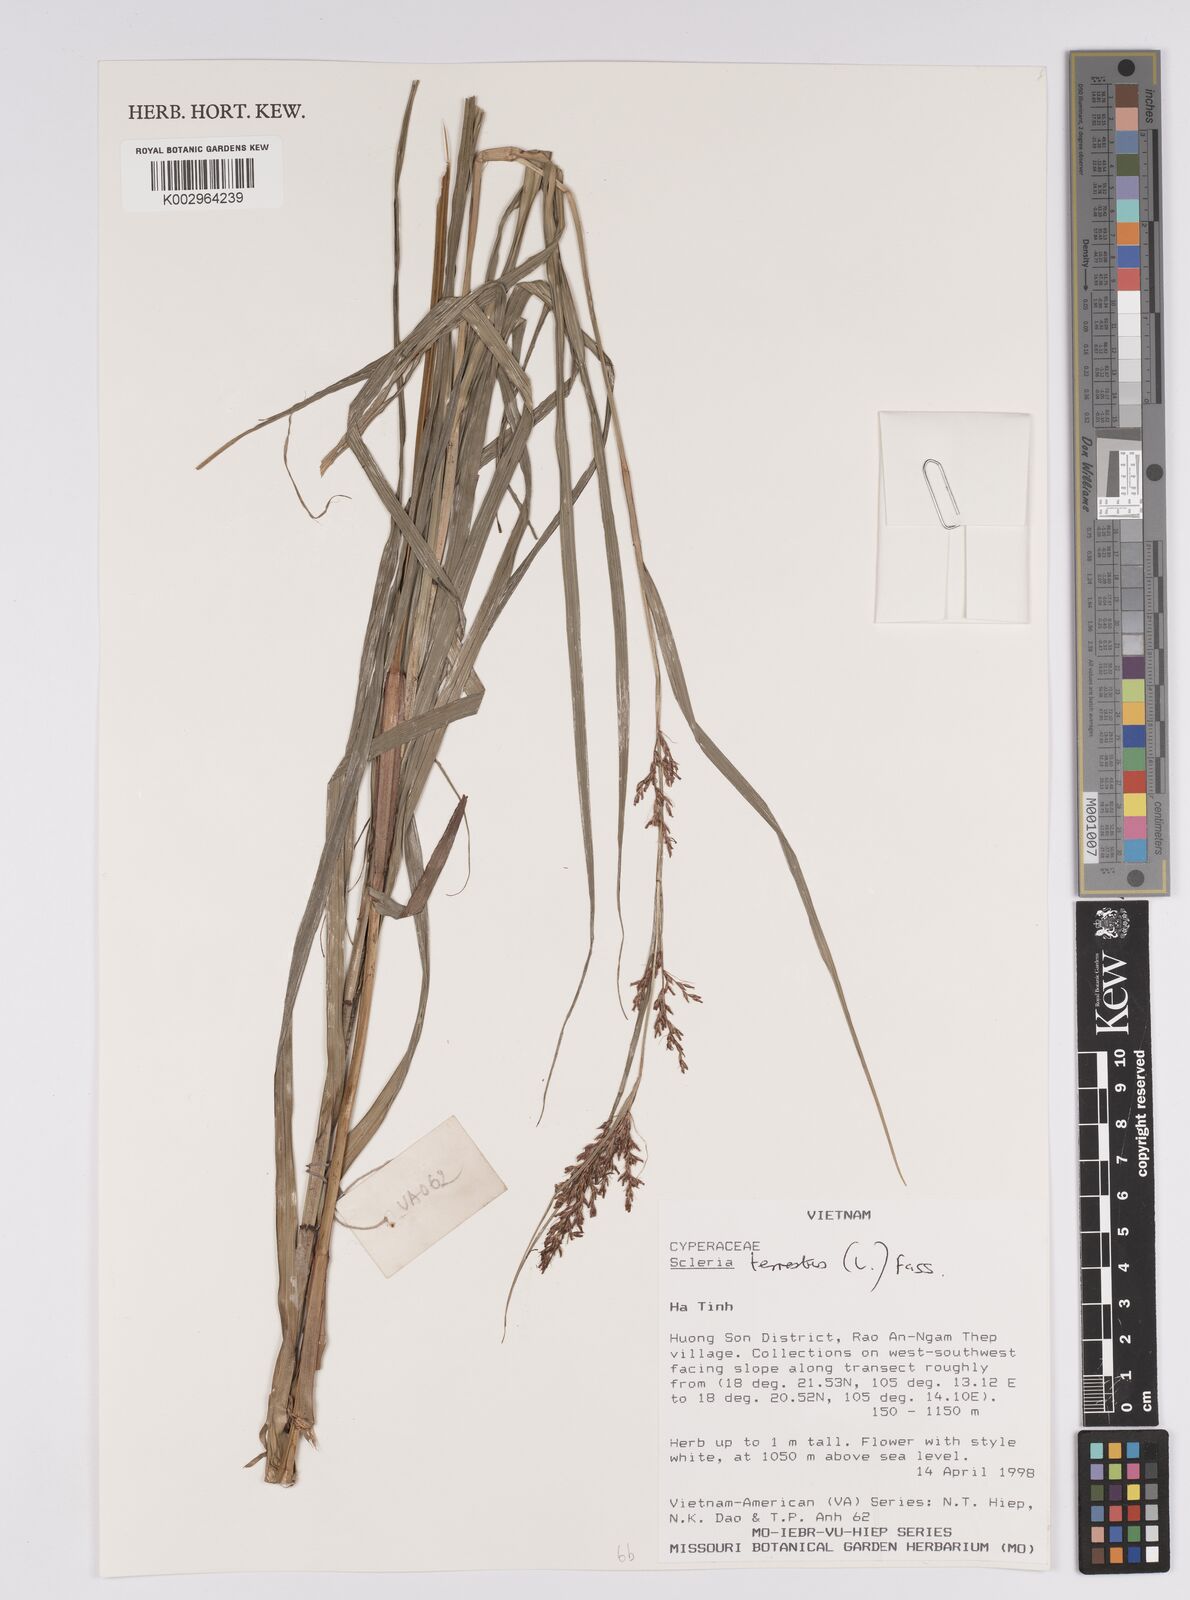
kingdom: Plantae
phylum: Tracheophyta
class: Liliopsida
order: Poales
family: Cyperaceae
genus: Scleria
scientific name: Scleria terrestris
